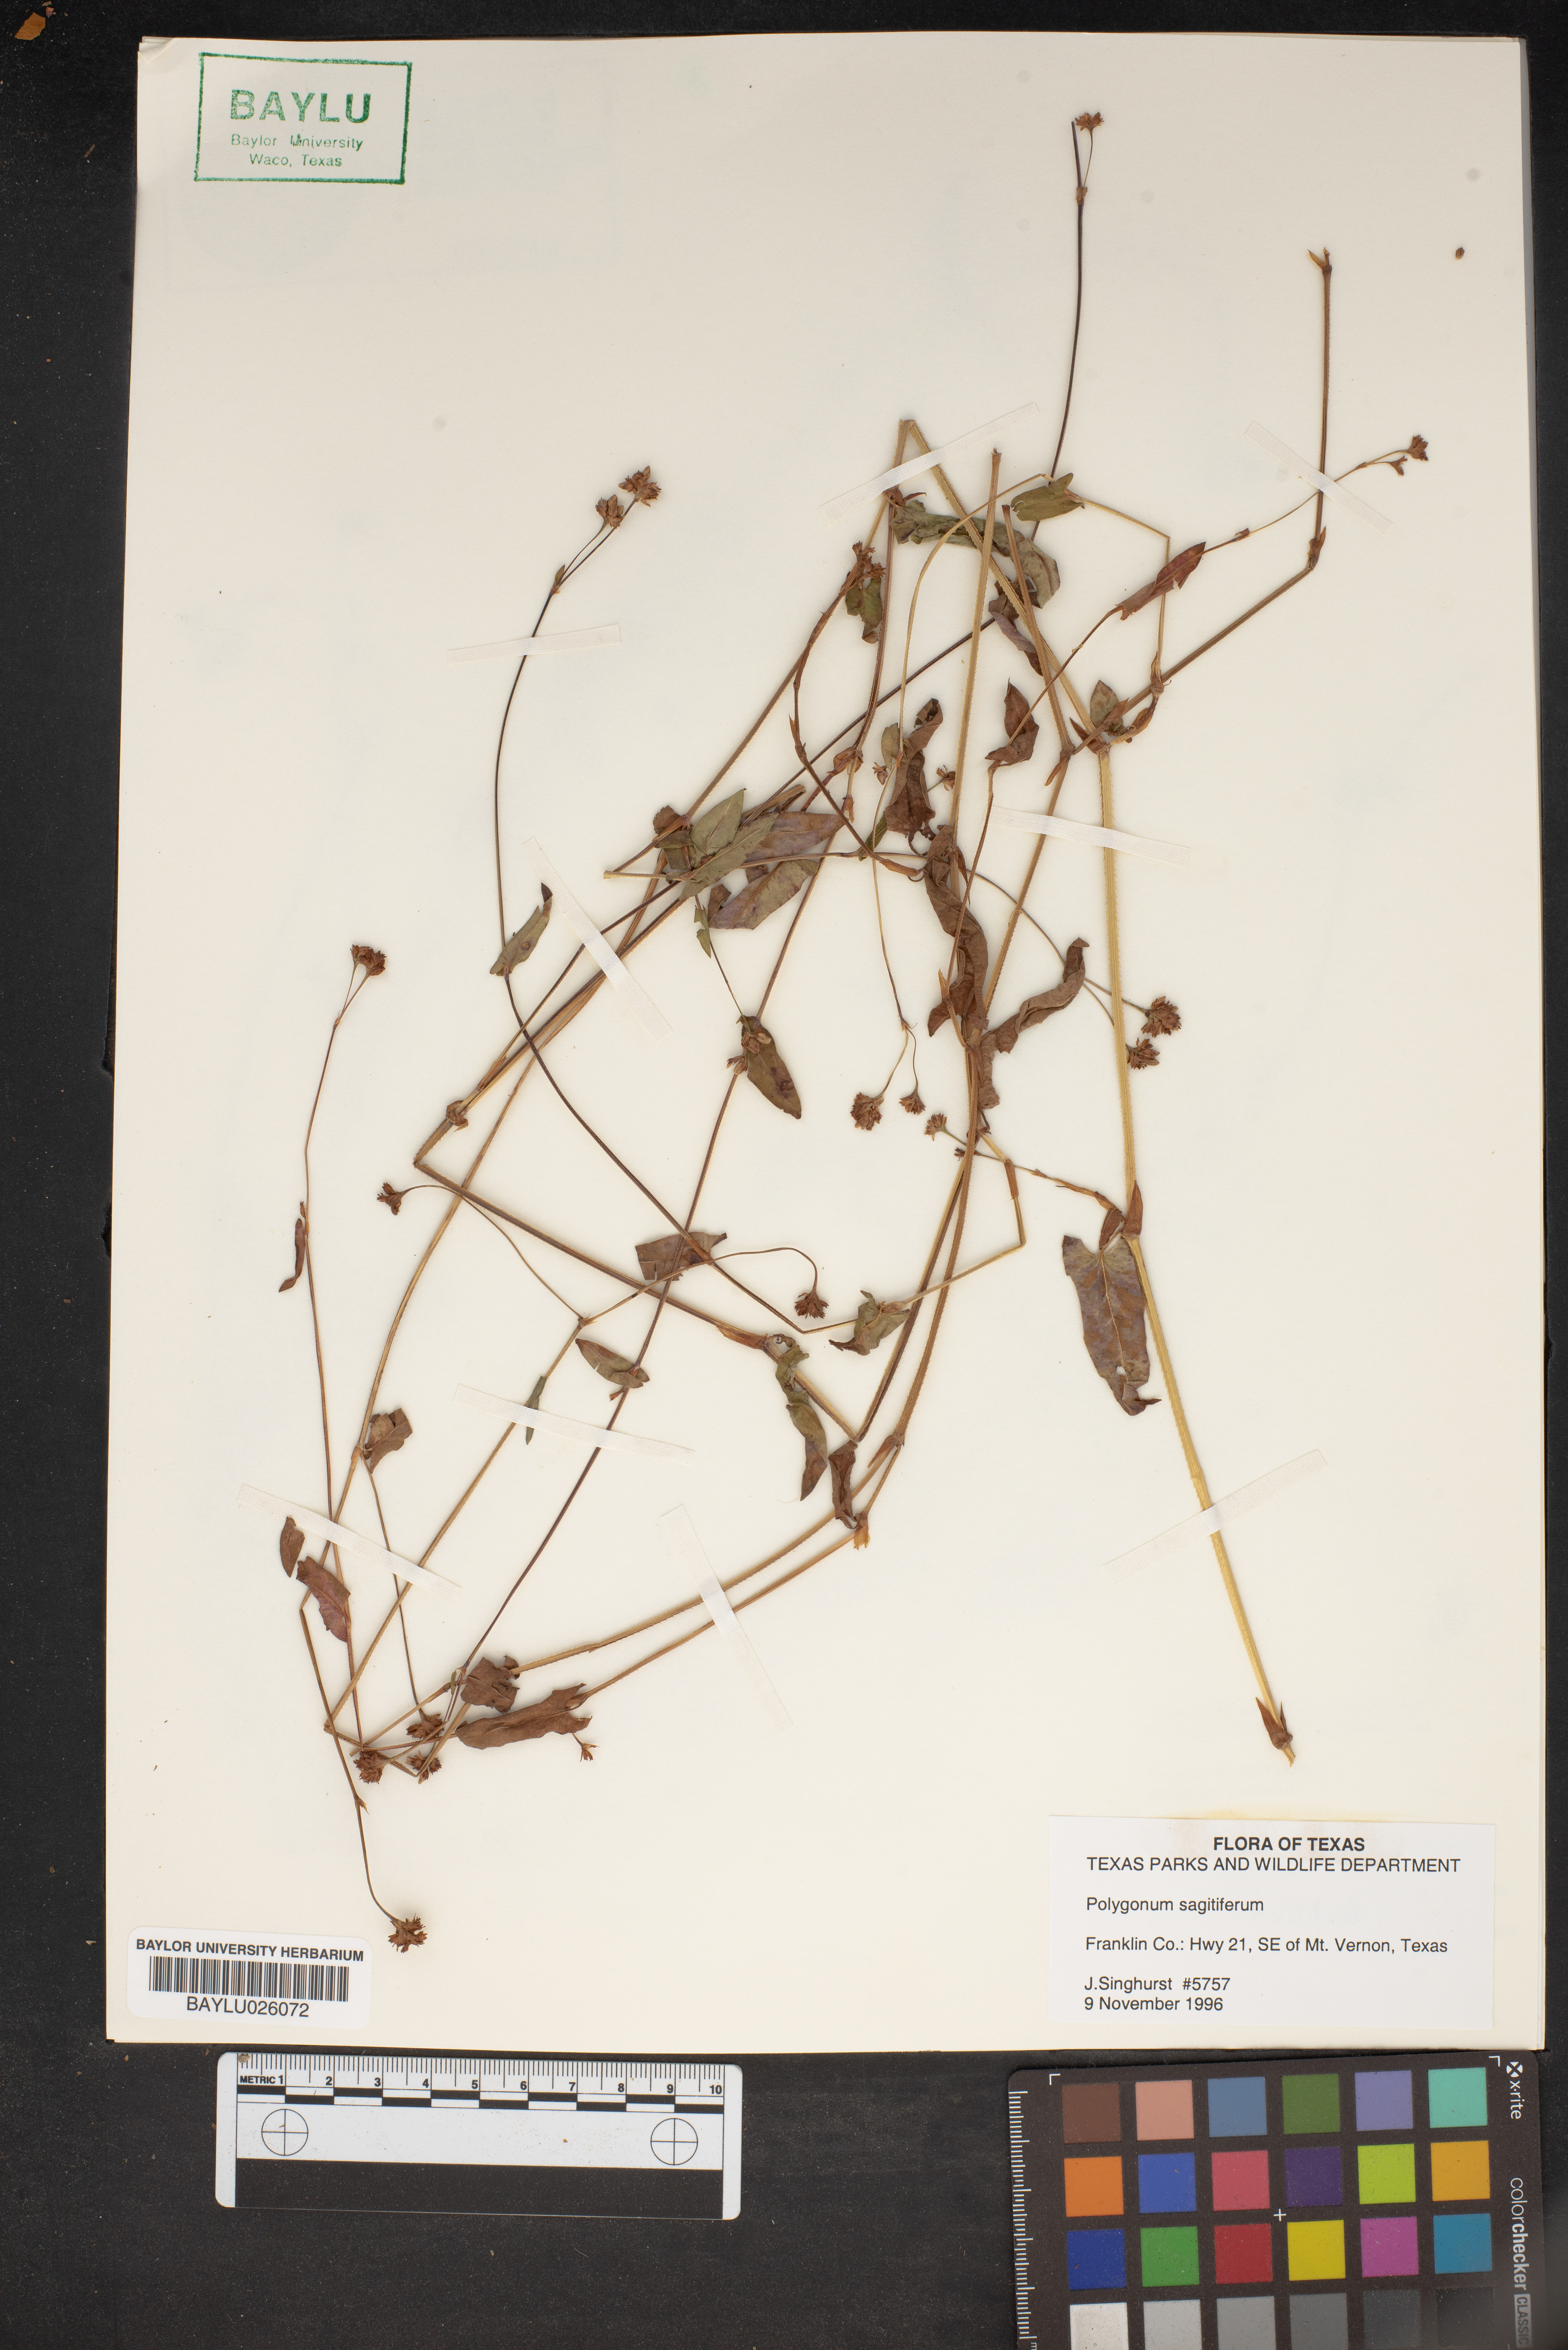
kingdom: Plantae
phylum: Tracheophyta
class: Magnoliopsida
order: Caryophyllales
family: Polygonaceae
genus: Polygonum
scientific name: Polygonum
